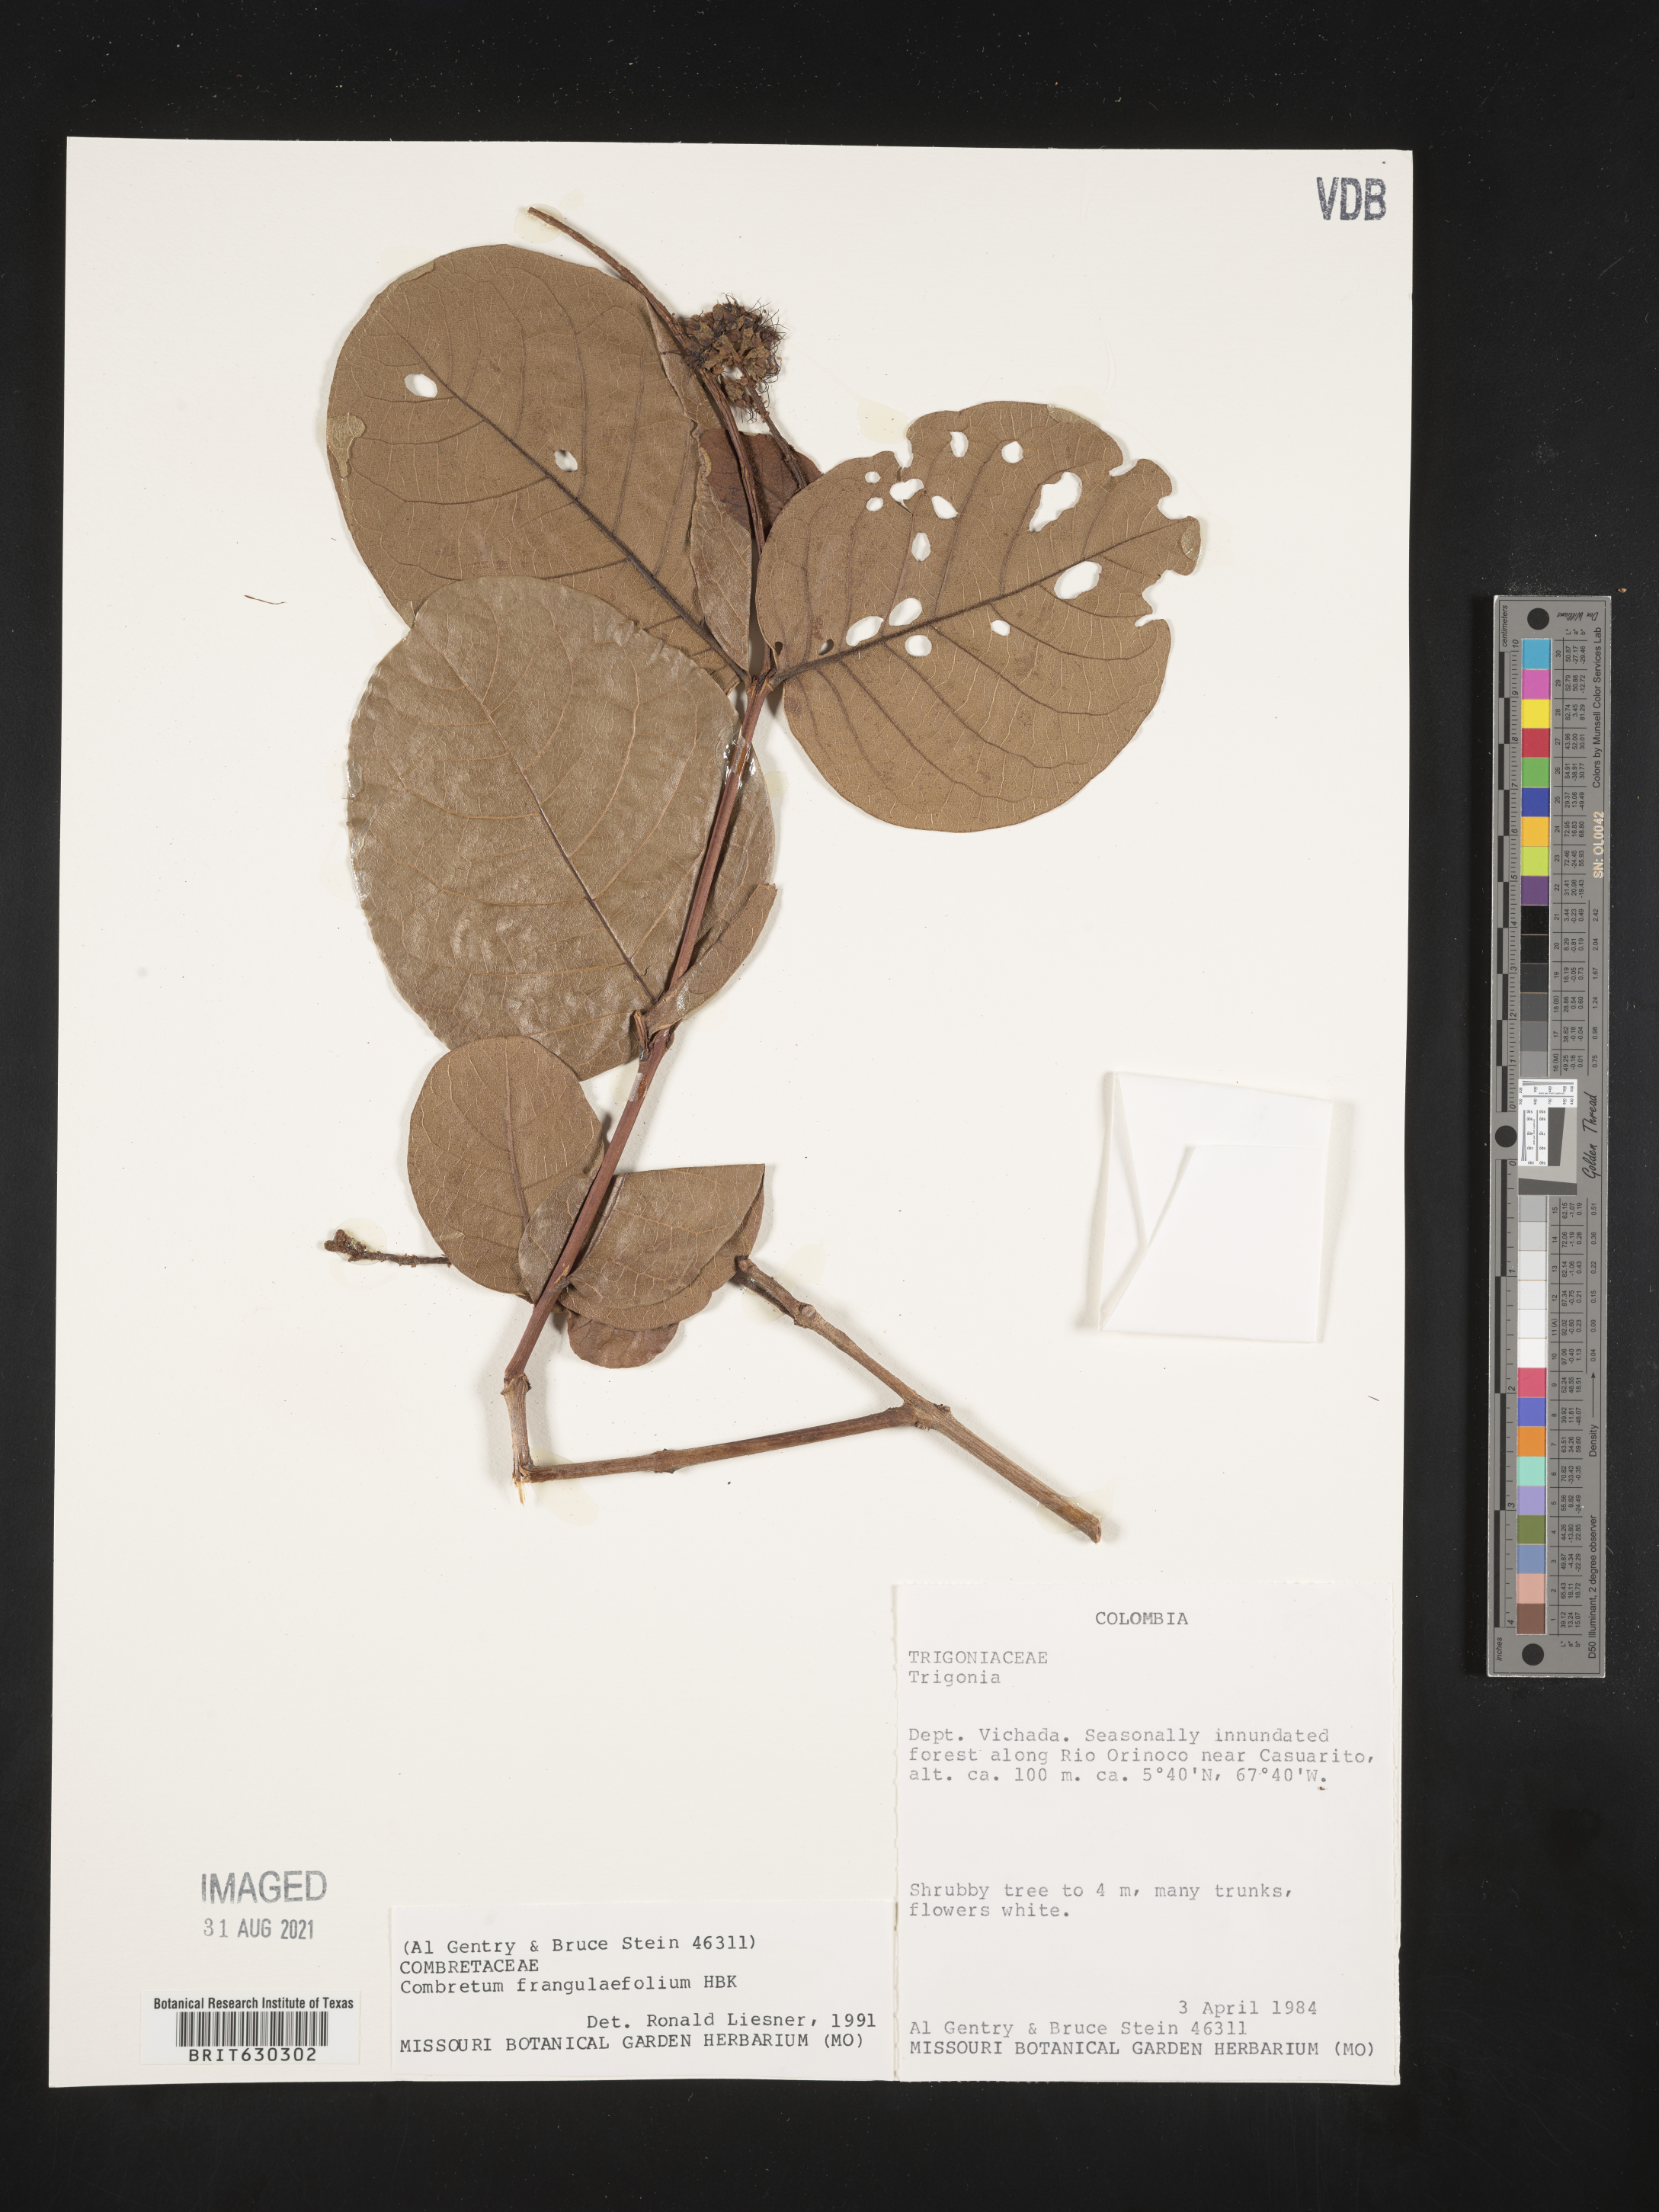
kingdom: Plantae
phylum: Tracheophyta
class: Magnoliopsida
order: Myrtales
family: Combretaceae
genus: Combretum
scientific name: Combretum frangulifolium
